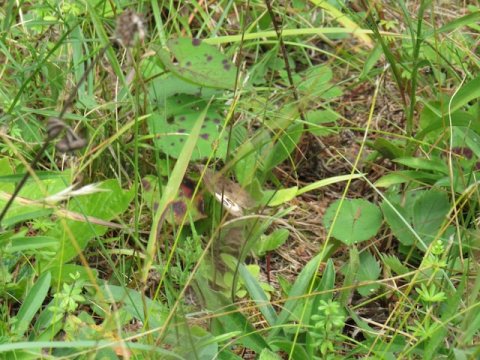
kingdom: Animalia
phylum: Arthropoda
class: Insecta
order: Lepidoptera
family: Nymphalidae
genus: Cercyonis
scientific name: Cercyonis pegala
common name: Common Wood-Nymph
